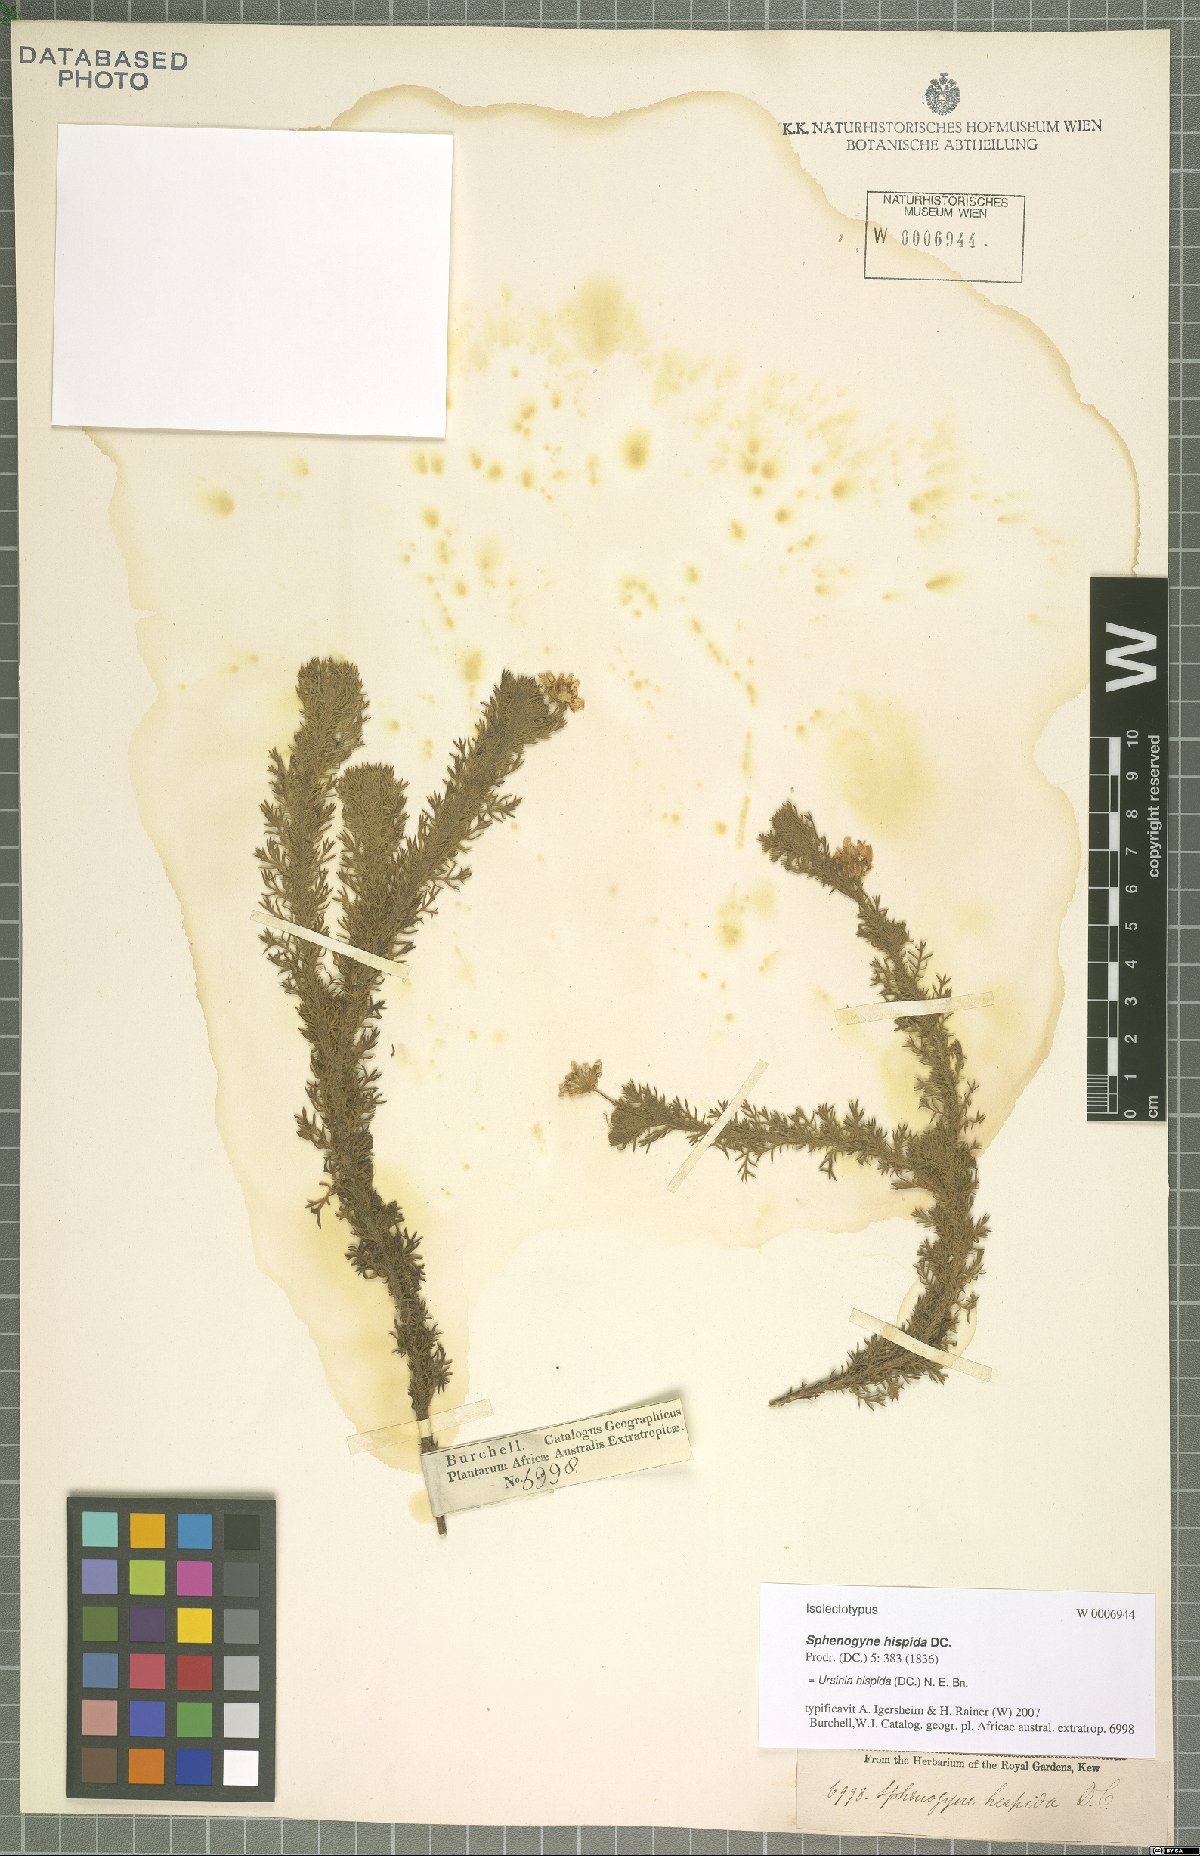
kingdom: Plantae
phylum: Tracheophyta
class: Magnoliopsida
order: Asterales
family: Asteraceae
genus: Ursinia
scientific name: Ursinia hispida
